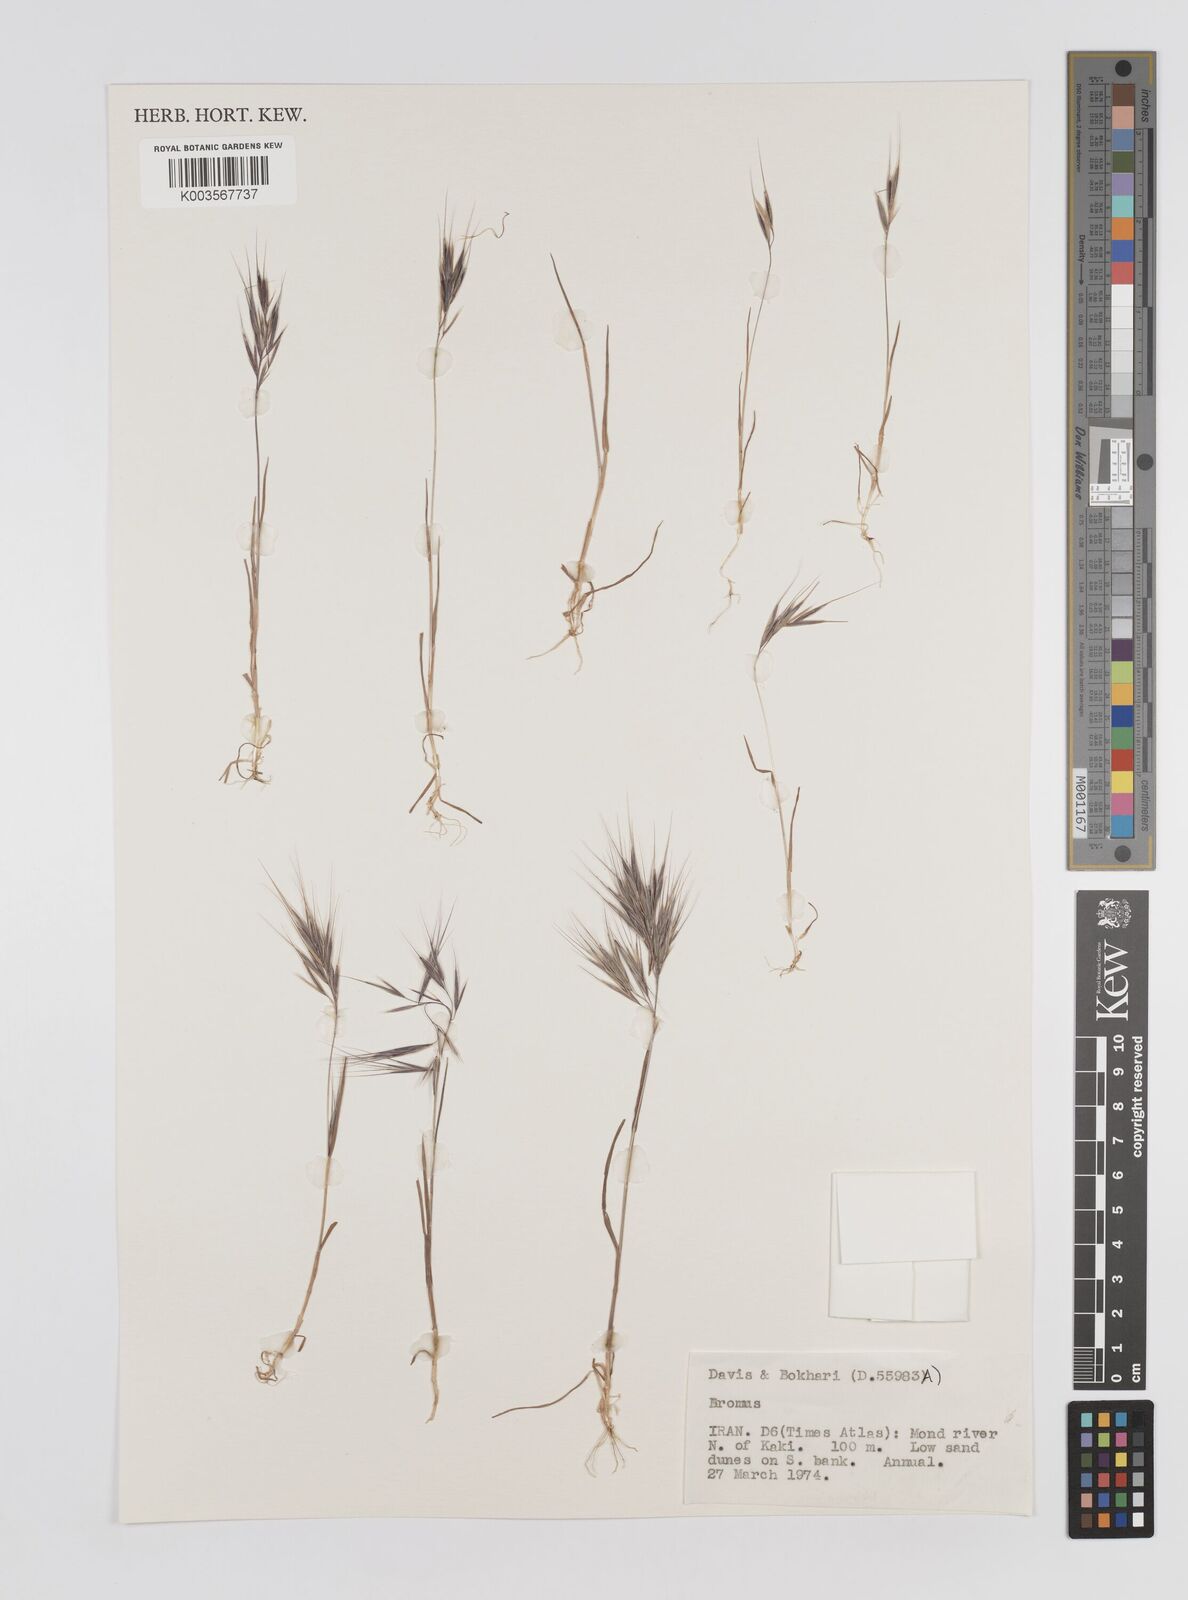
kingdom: Plantae
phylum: Tracheophyta
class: Liliopsida
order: Poales
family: Poaceae
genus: Bromus
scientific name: Bromus
